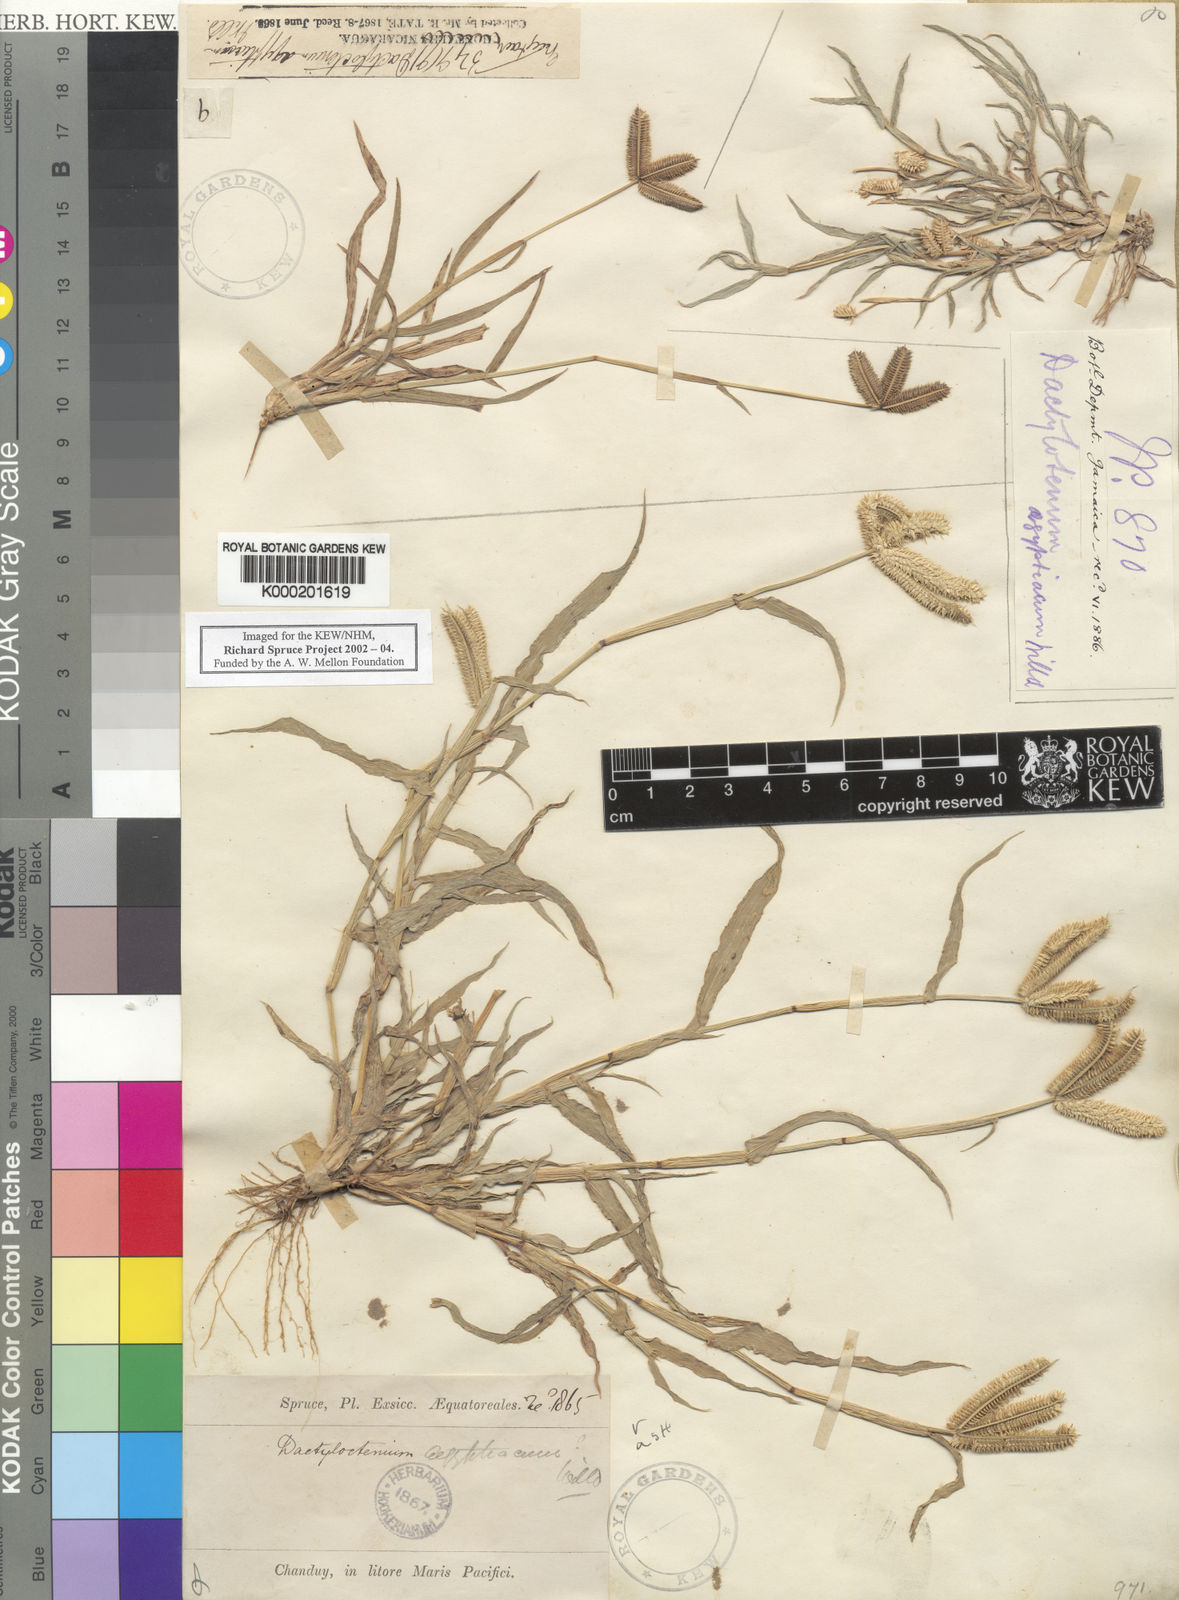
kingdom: Plantae
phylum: Tracheophyta
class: Liliopsida
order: Poales
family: Poaceae
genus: Dactyloctenium
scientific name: Dactyloctenium
